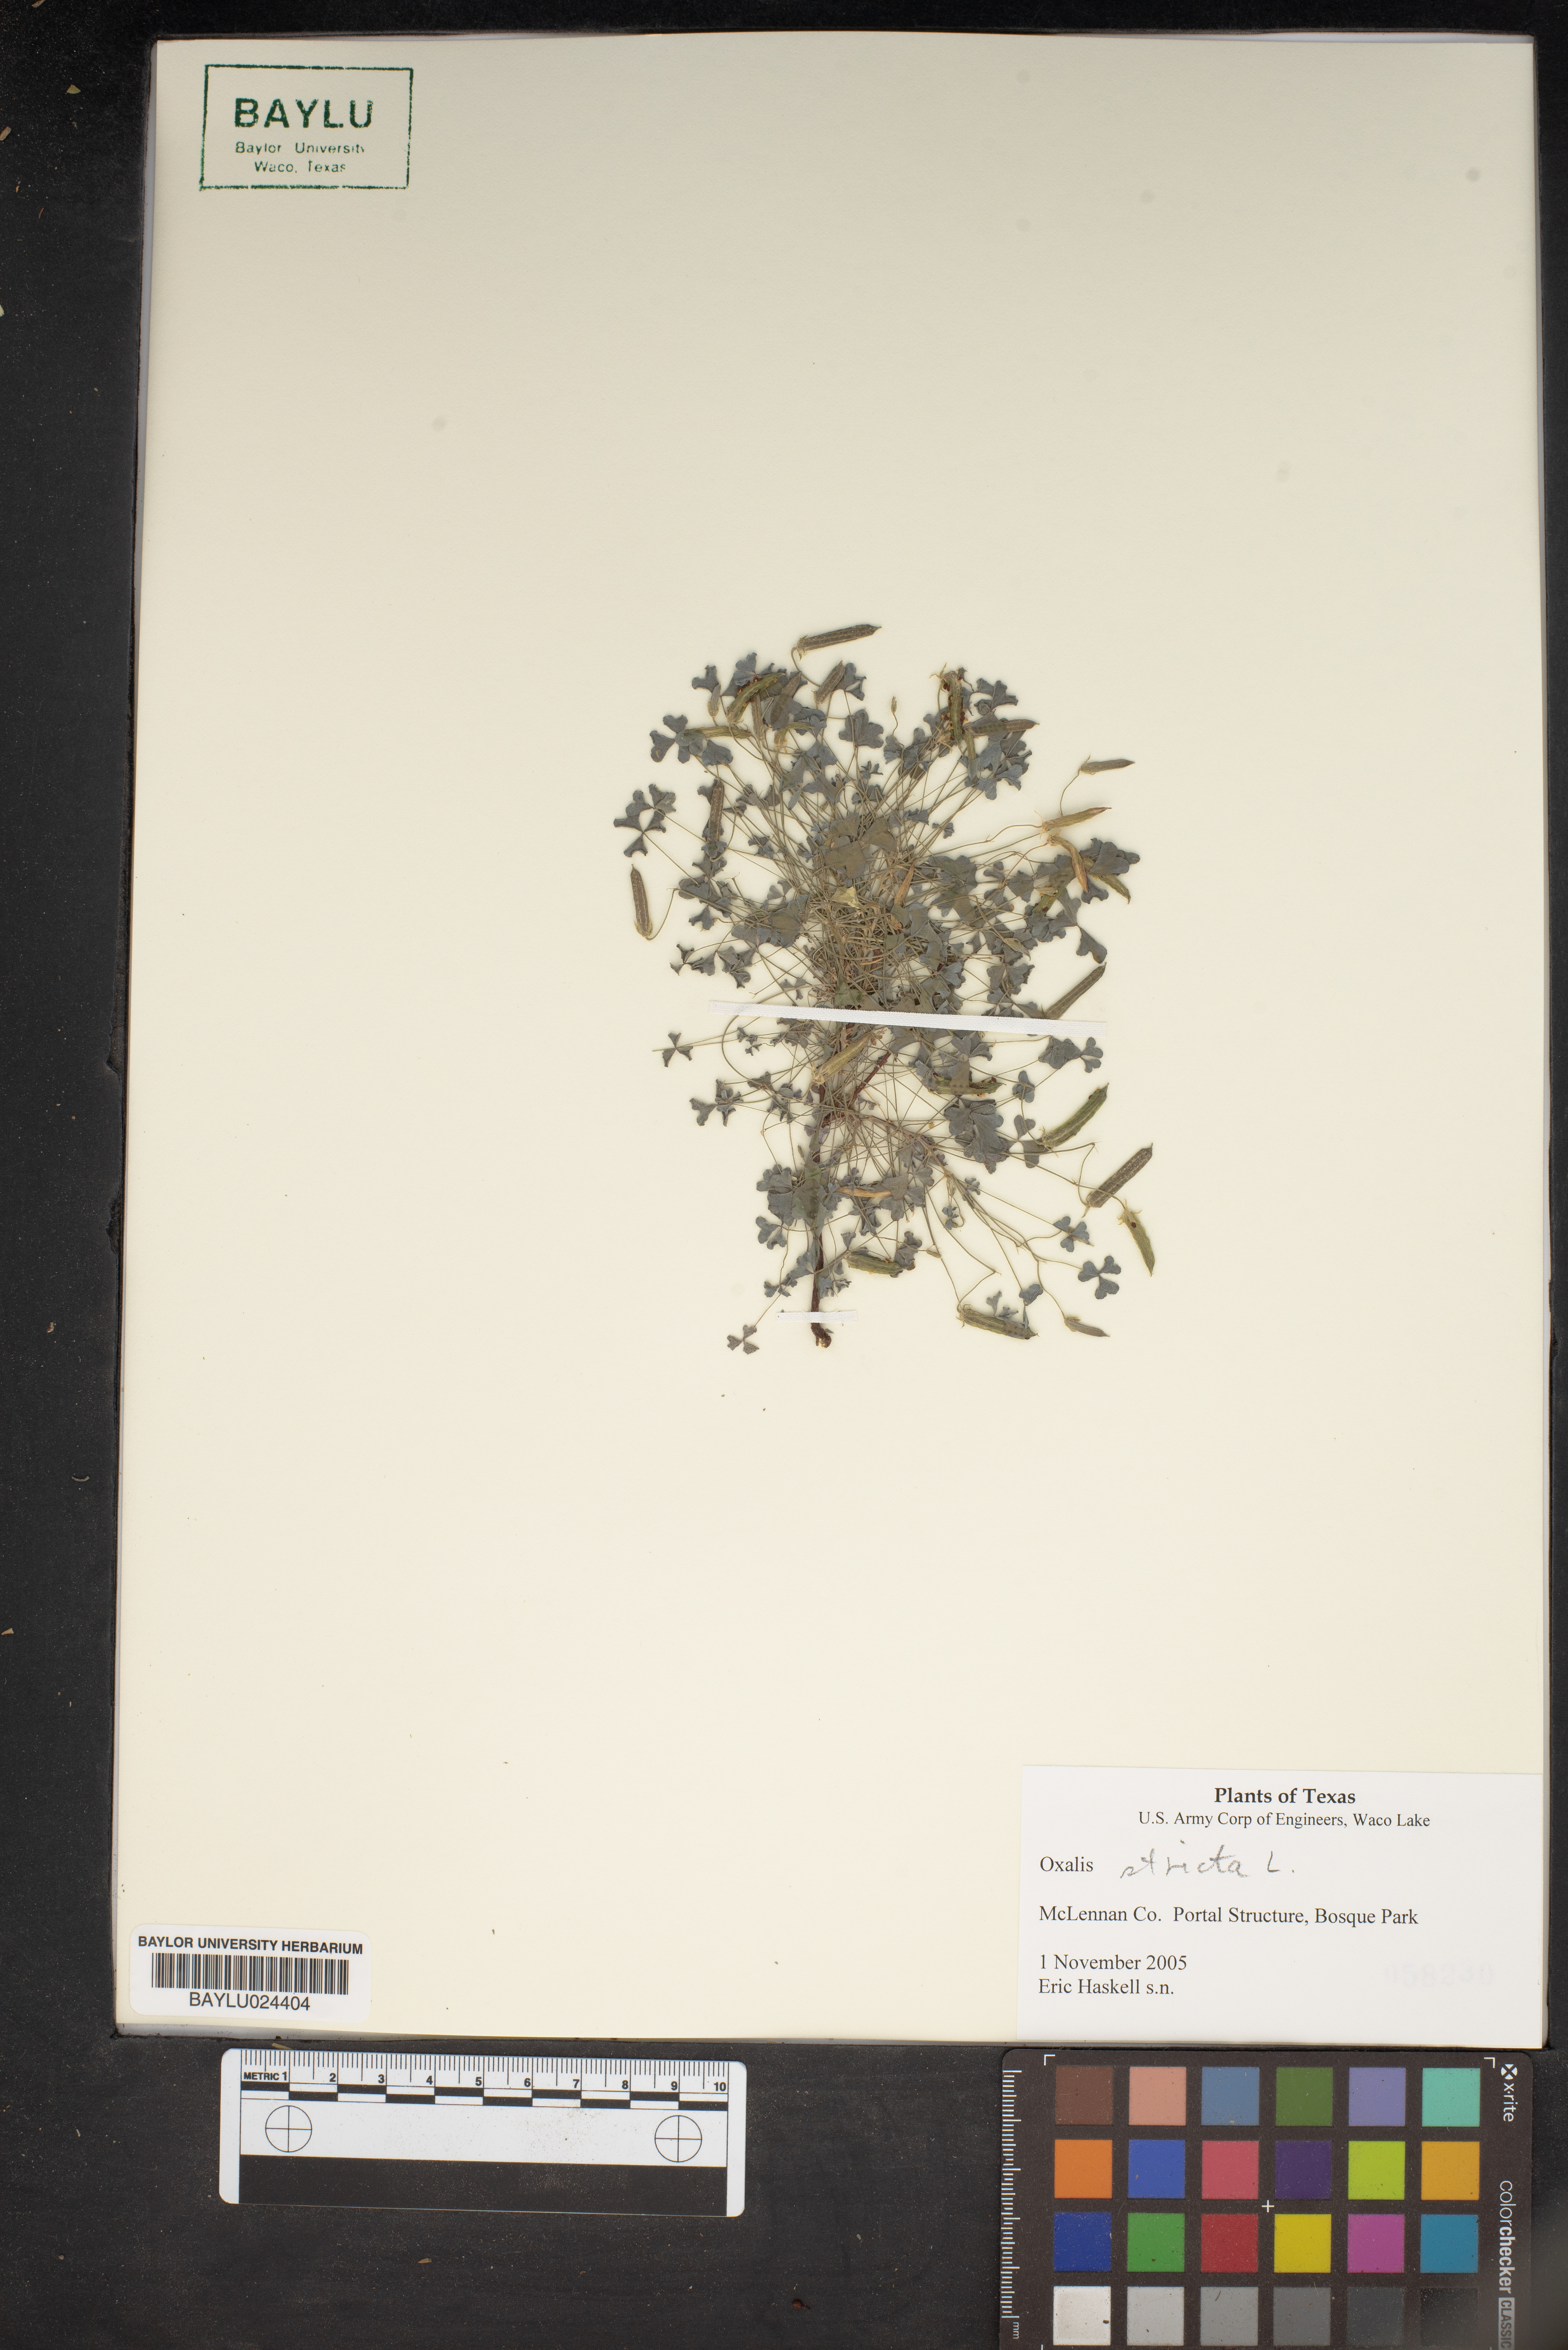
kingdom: Plantae
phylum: Tracheophyta
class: Magnoliopsida
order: Oxalidales
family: Oxalidaceae
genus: Oxalis
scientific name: Oxalis stricta
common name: Upright yellow-sorrel
